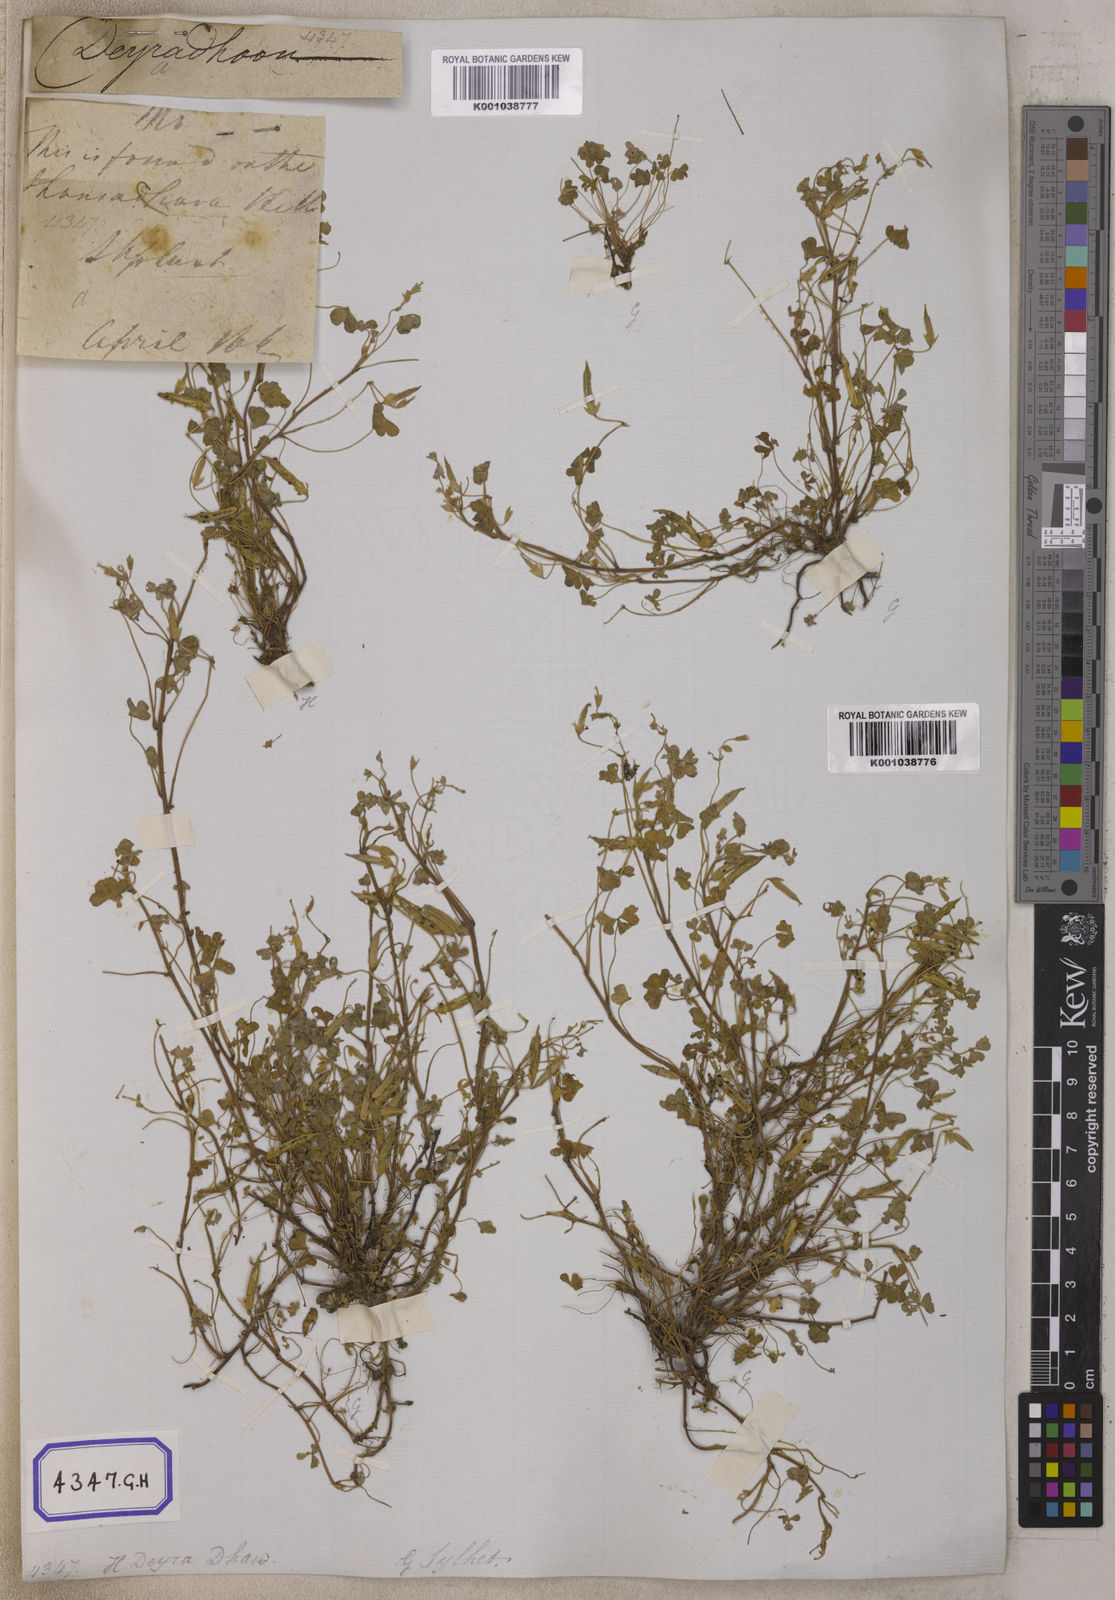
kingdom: Plantae
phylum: Tracheophyta
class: Magnoliopsida
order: Oxalidales
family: Oxalidaceae
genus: Oxalis
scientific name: Oxalis corniculata
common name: Procumbent yellow-sorrel
